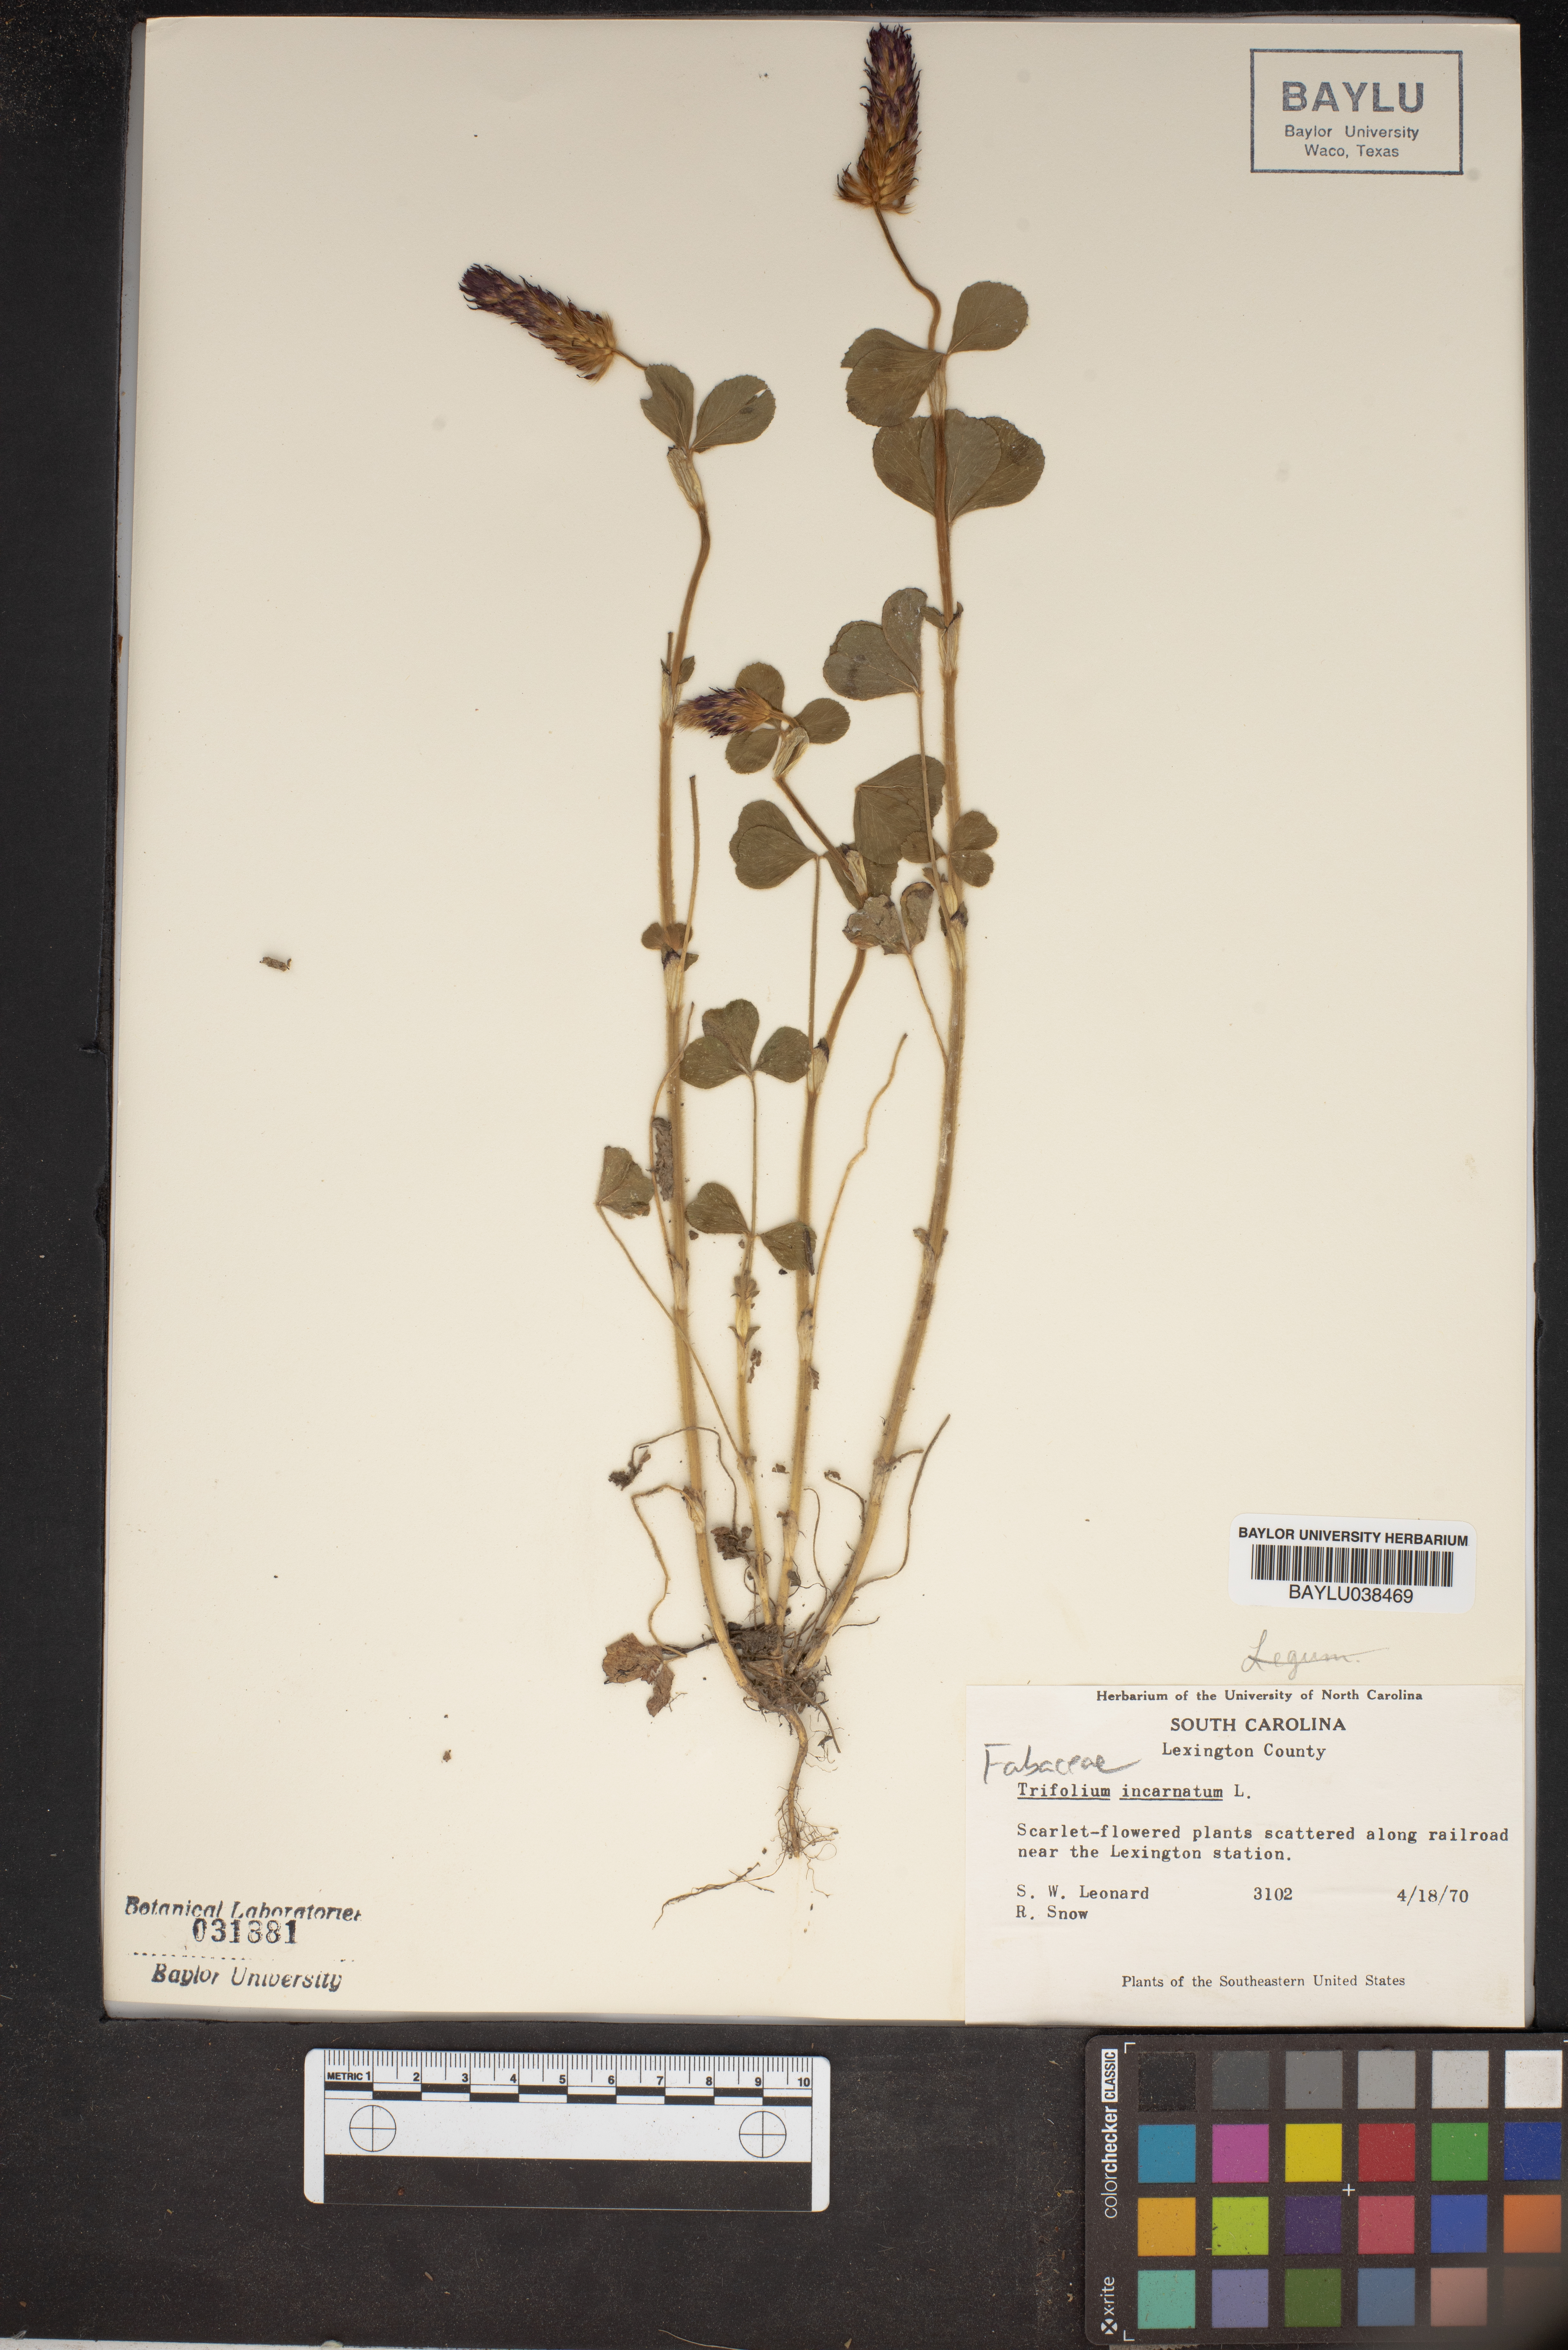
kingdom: Plantae
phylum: Tracheophyta
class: Magnoliopsida
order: Fabales
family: Fabaceae
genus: Trifolium
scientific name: Trifolium incarnatum
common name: Crimson clover
